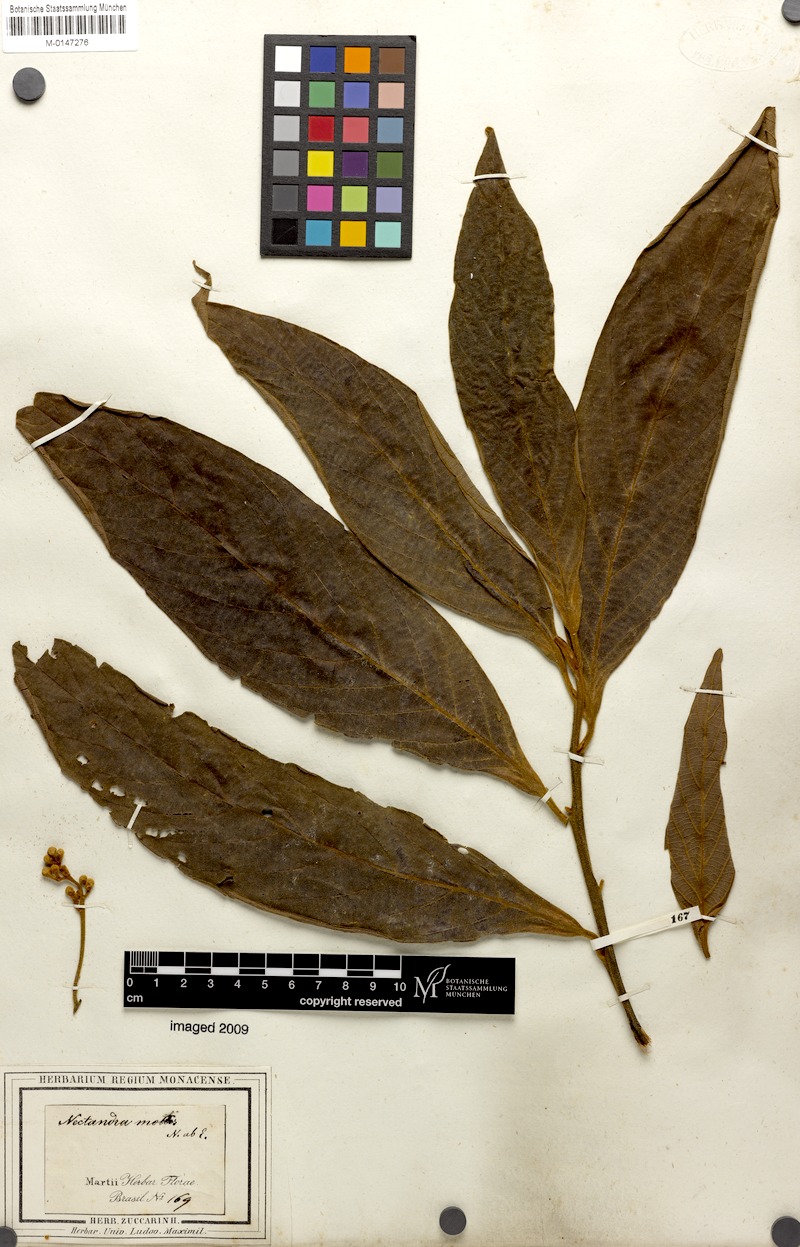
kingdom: Plantae
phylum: Tracheophyta
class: Magnoliopsida
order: Laurales
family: Lauraceae
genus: Nectandra
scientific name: Nectandra villosa
